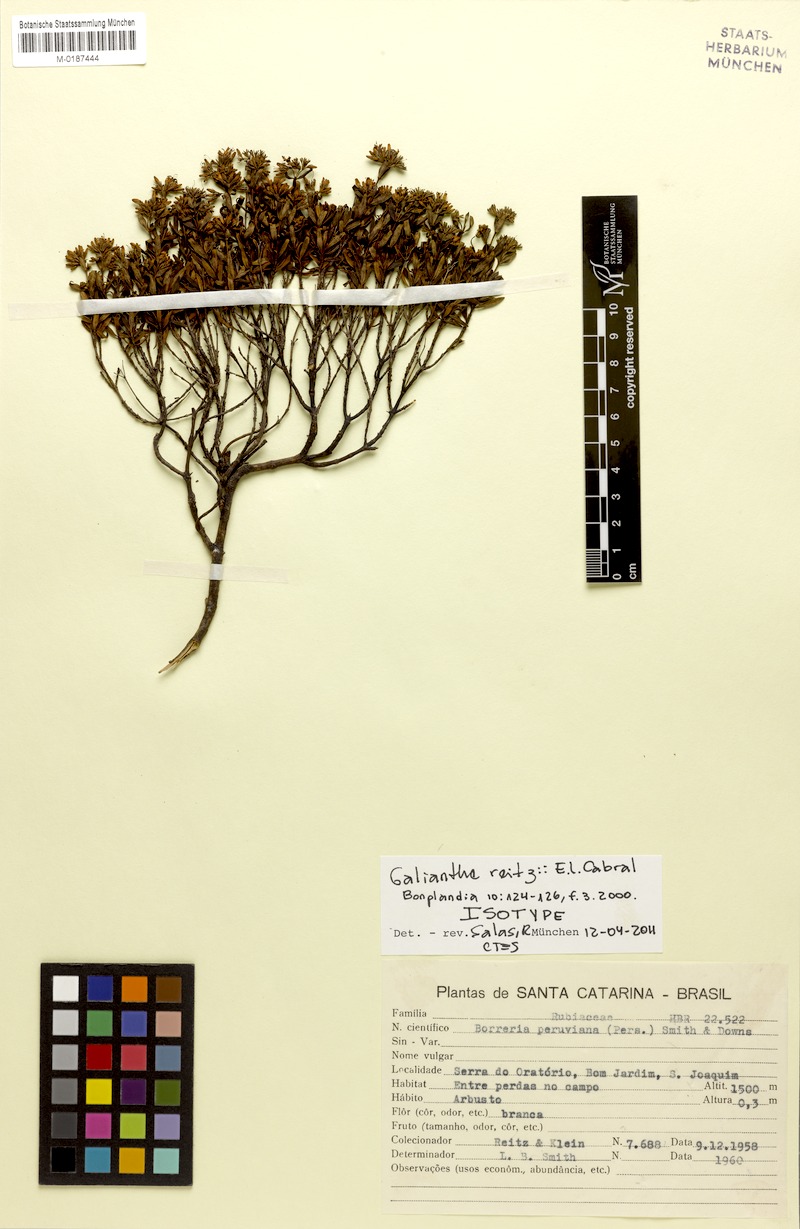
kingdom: Plantae
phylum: Tracheophyta
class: Magnoliopsida
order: Gentianales
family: Rubiaceae
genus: Galianthe
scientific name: Galianthe reitzii
